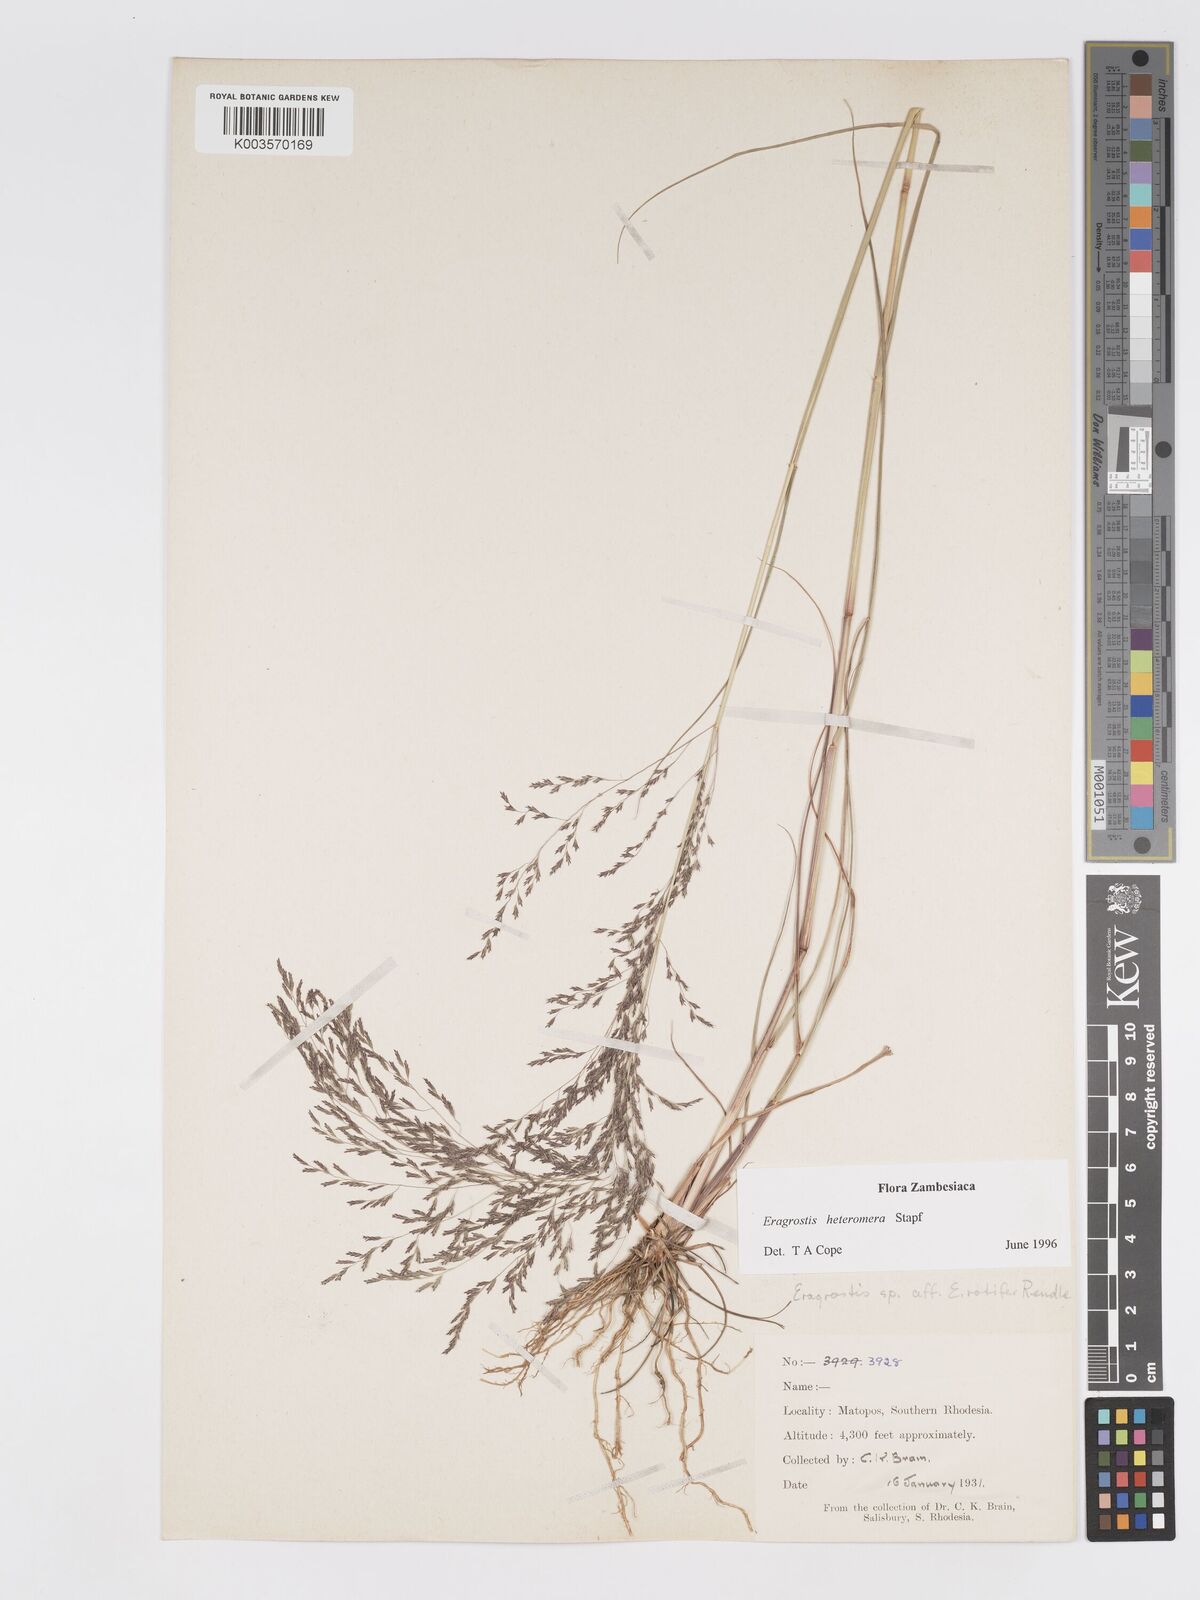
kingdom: Plantae
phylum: Tracheophyta
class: Liliopsida
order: Poales
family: Poaceae
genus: Eragrostis
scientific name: Eragrostis heteromera
